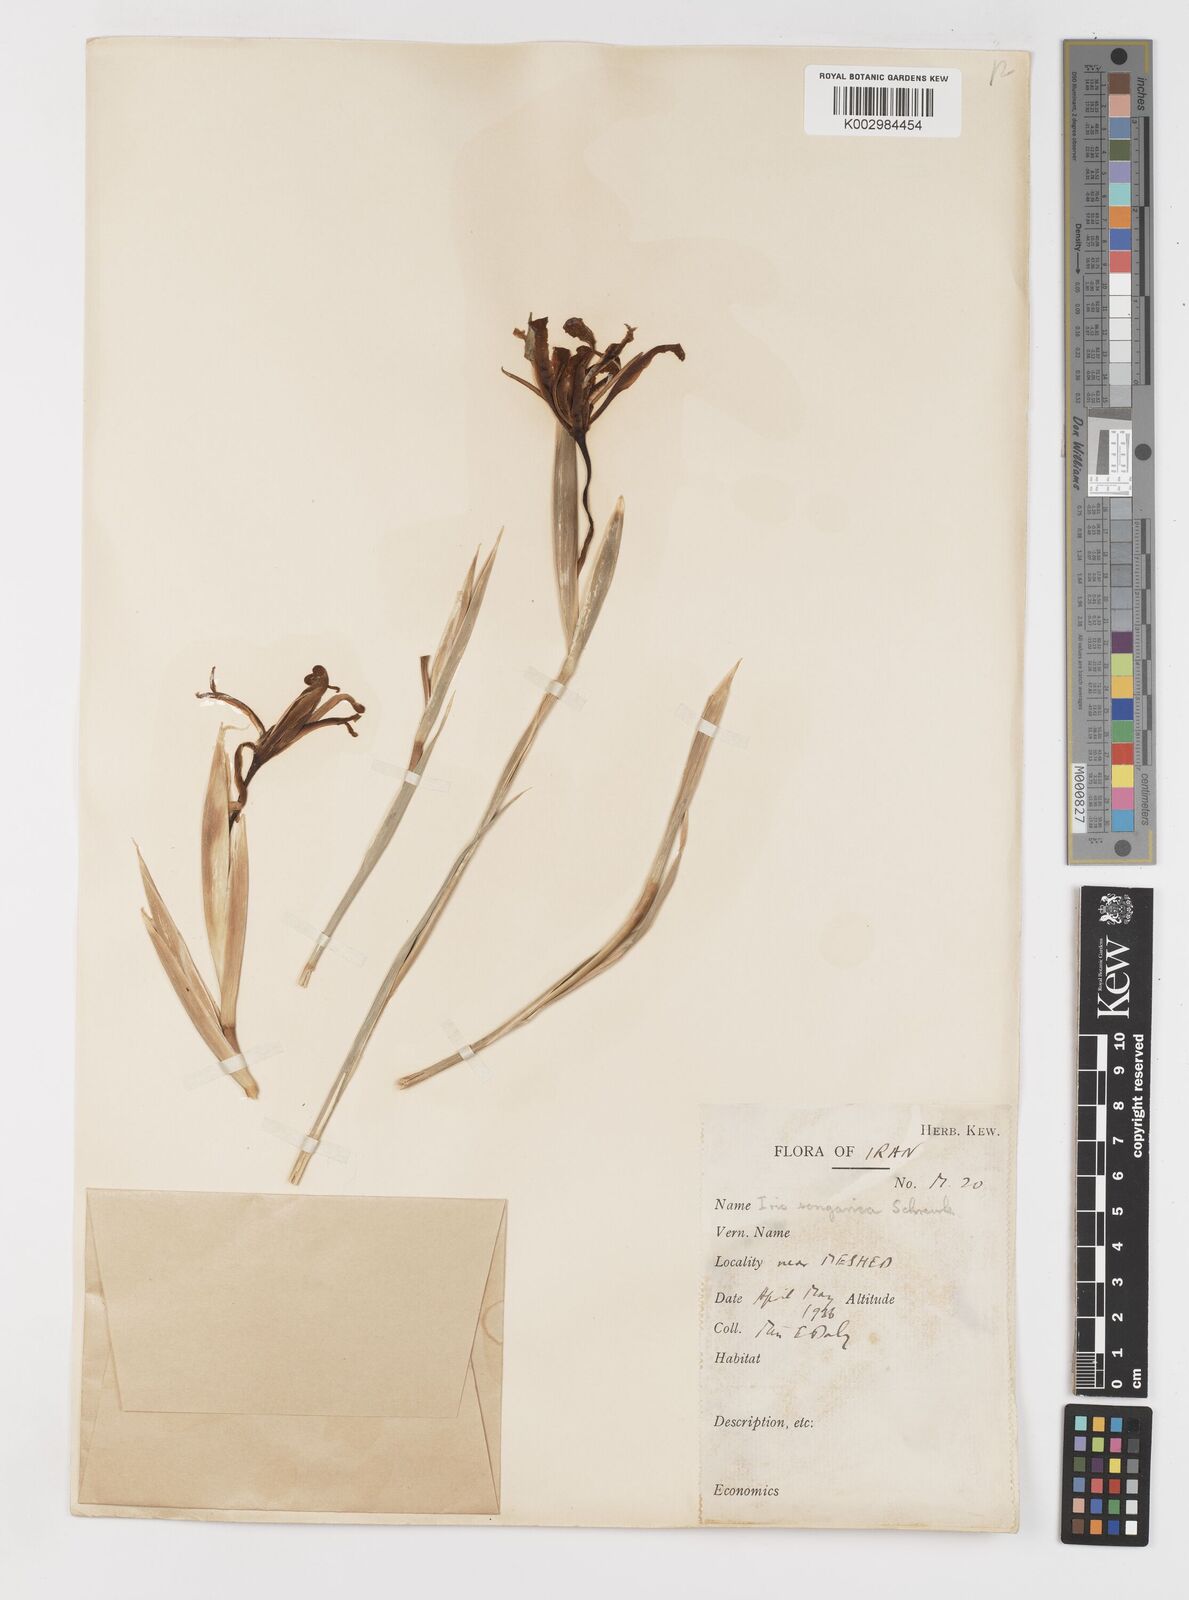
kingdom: Plantae
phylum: Tracheophyta
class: Liliopsida
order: Asparagales
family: Iridaceae
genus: Iris
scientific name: Iris songarica
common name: Songar iris
